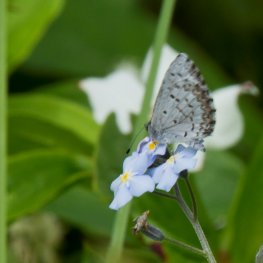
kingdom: Animalia
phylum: Arthropoda
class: Insecta
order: Lepidoptera
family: Lycaenidae
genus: Celastrina
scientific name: Celastrina lucia
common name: Northern Spring Azure
